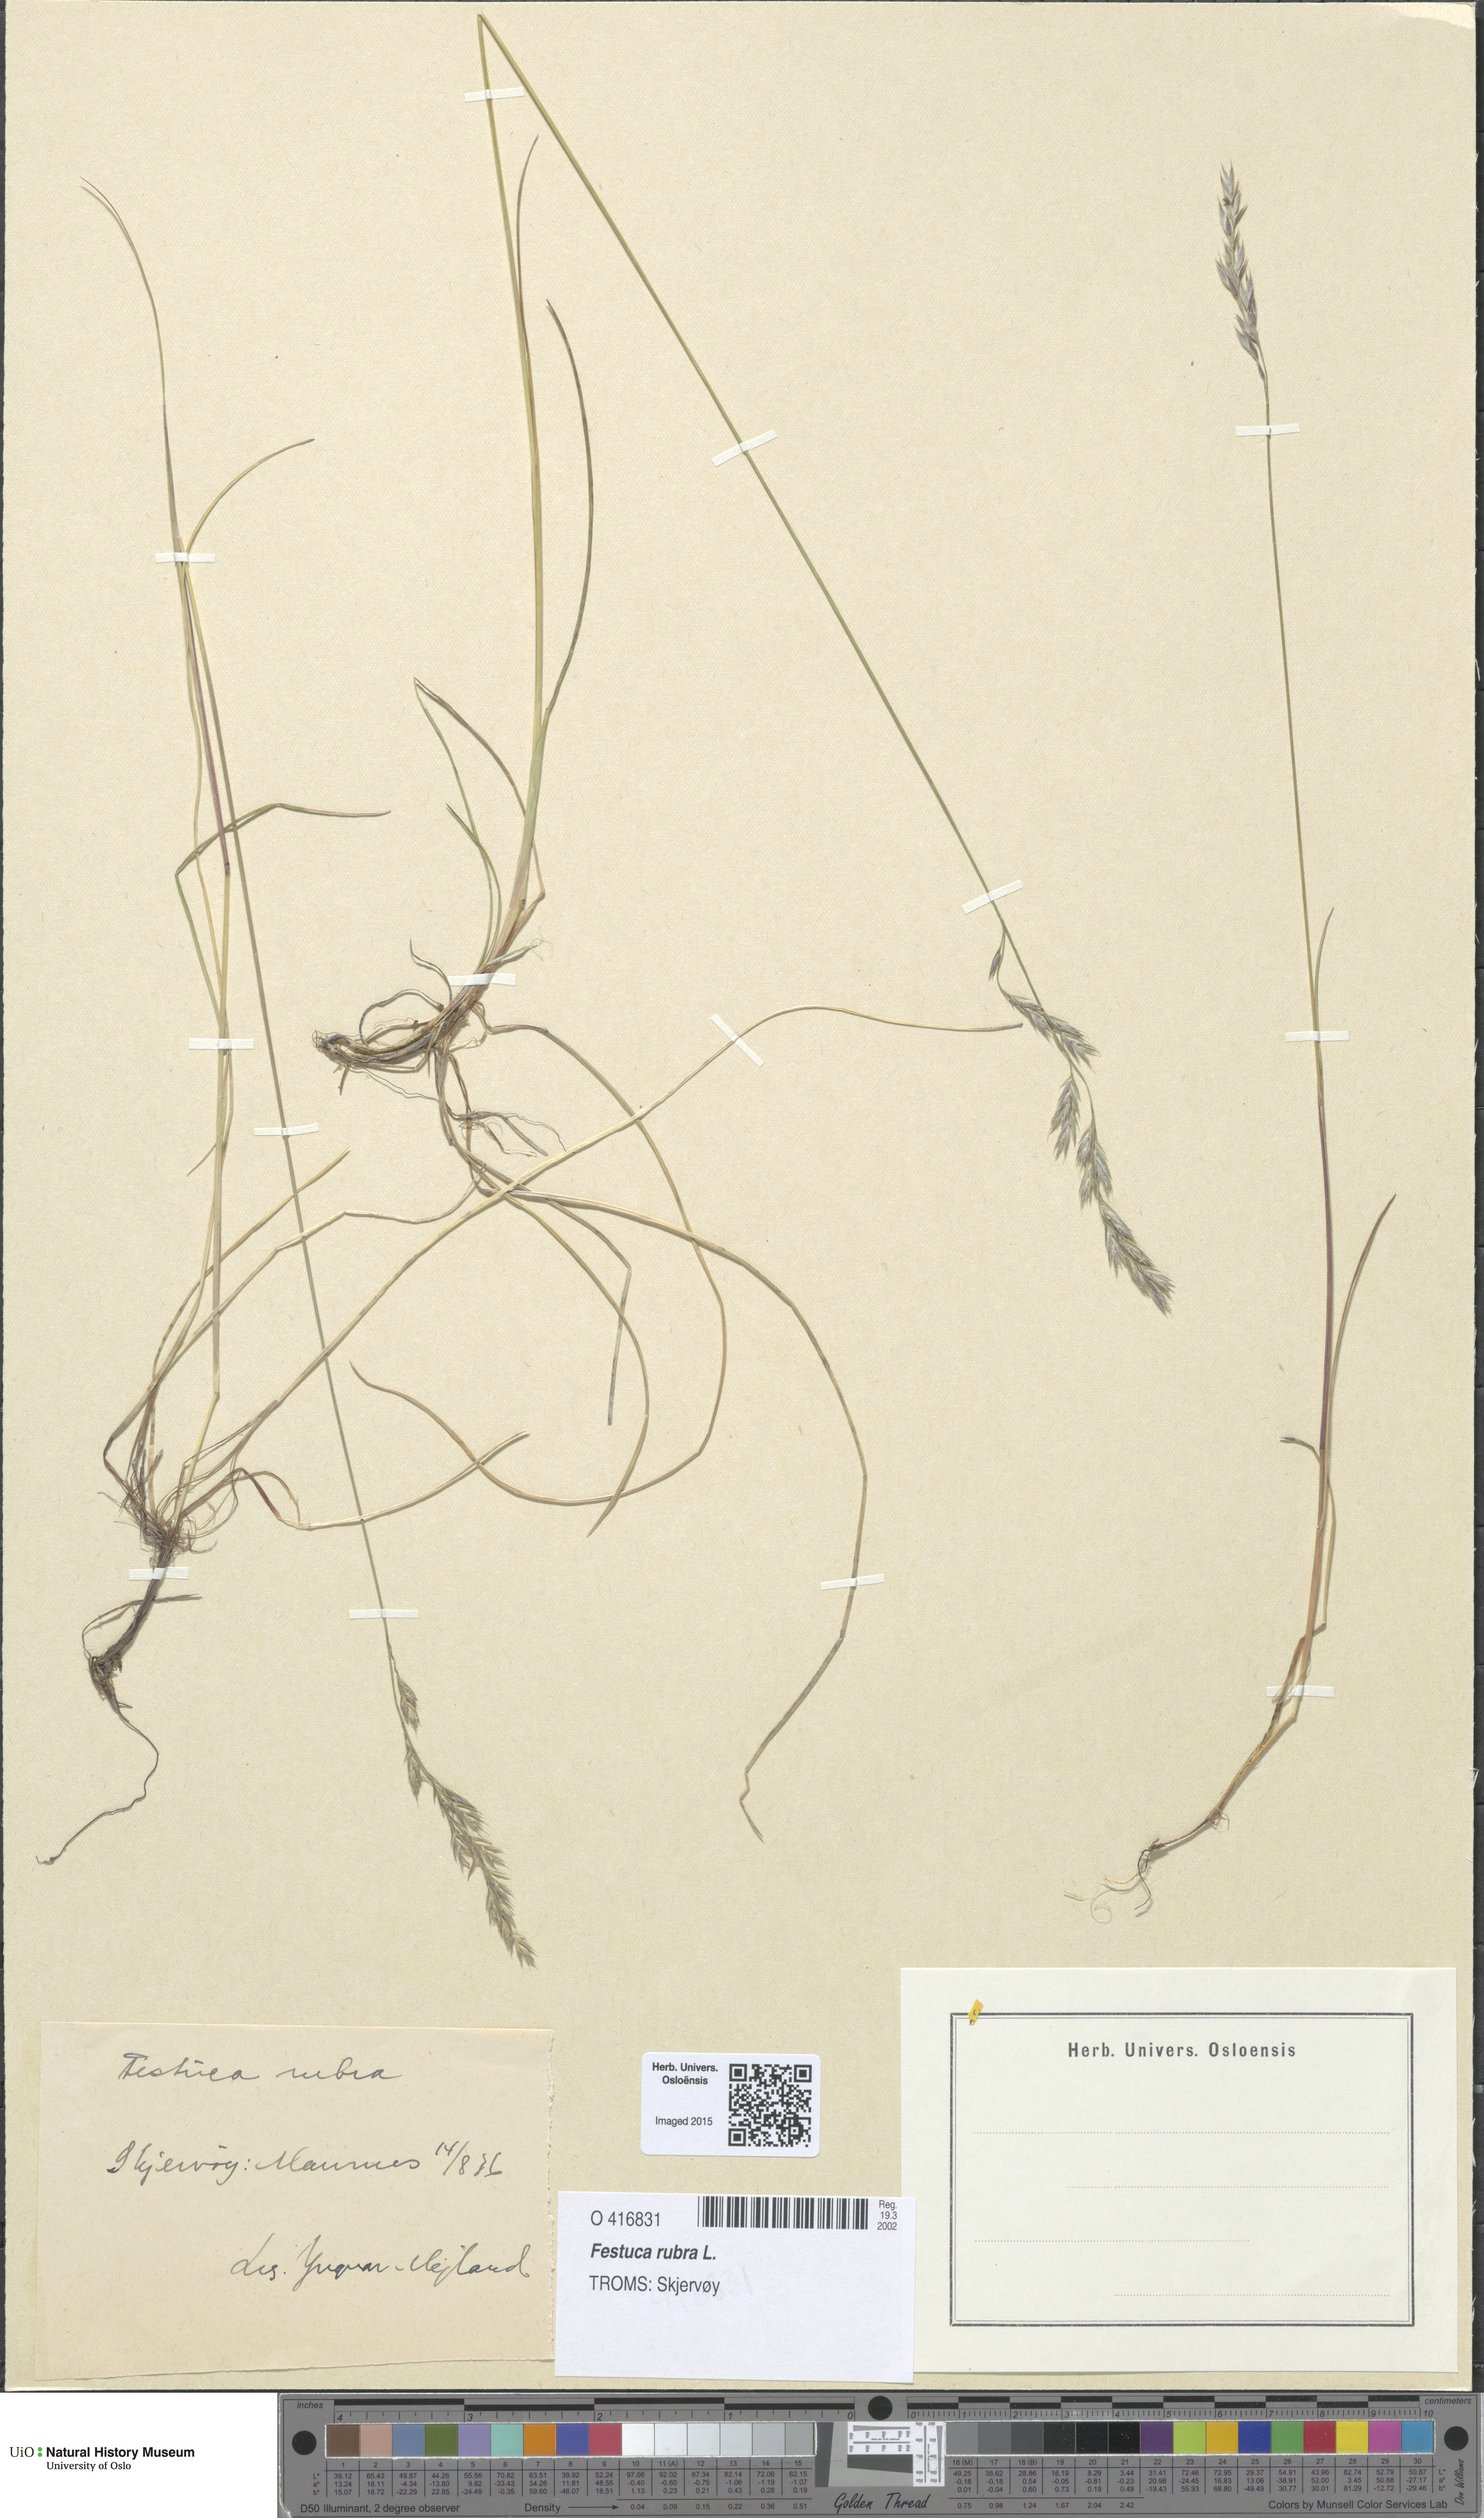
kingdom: Plantae
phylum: Tracheophyta
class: Liliopsida
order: Poales
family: Poaceae
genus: Festuca
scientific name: Festuca rubra
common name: Red fescue
